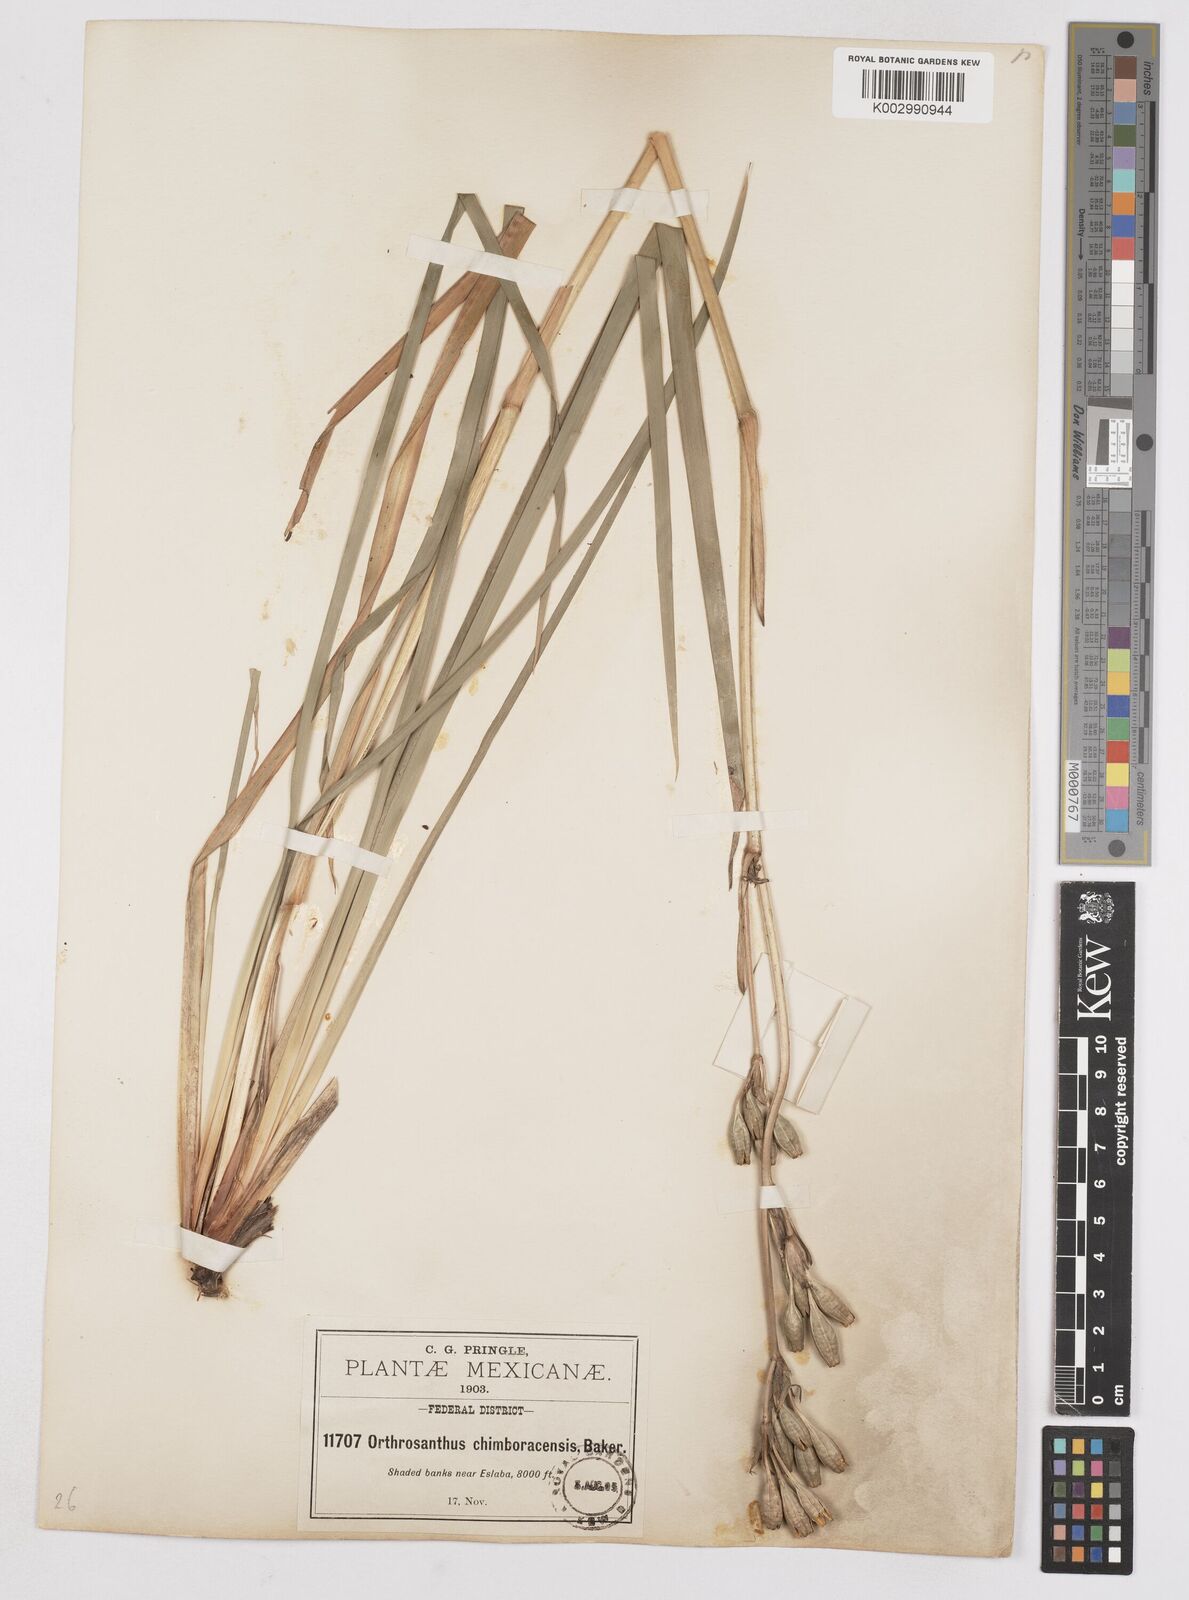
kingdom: Plantae
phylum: Tracheophyta
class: Liliopsida
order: Asparagales
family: Iridaceae
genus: Orthrosanthus
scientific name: Orthrosanthus chimboracensis
